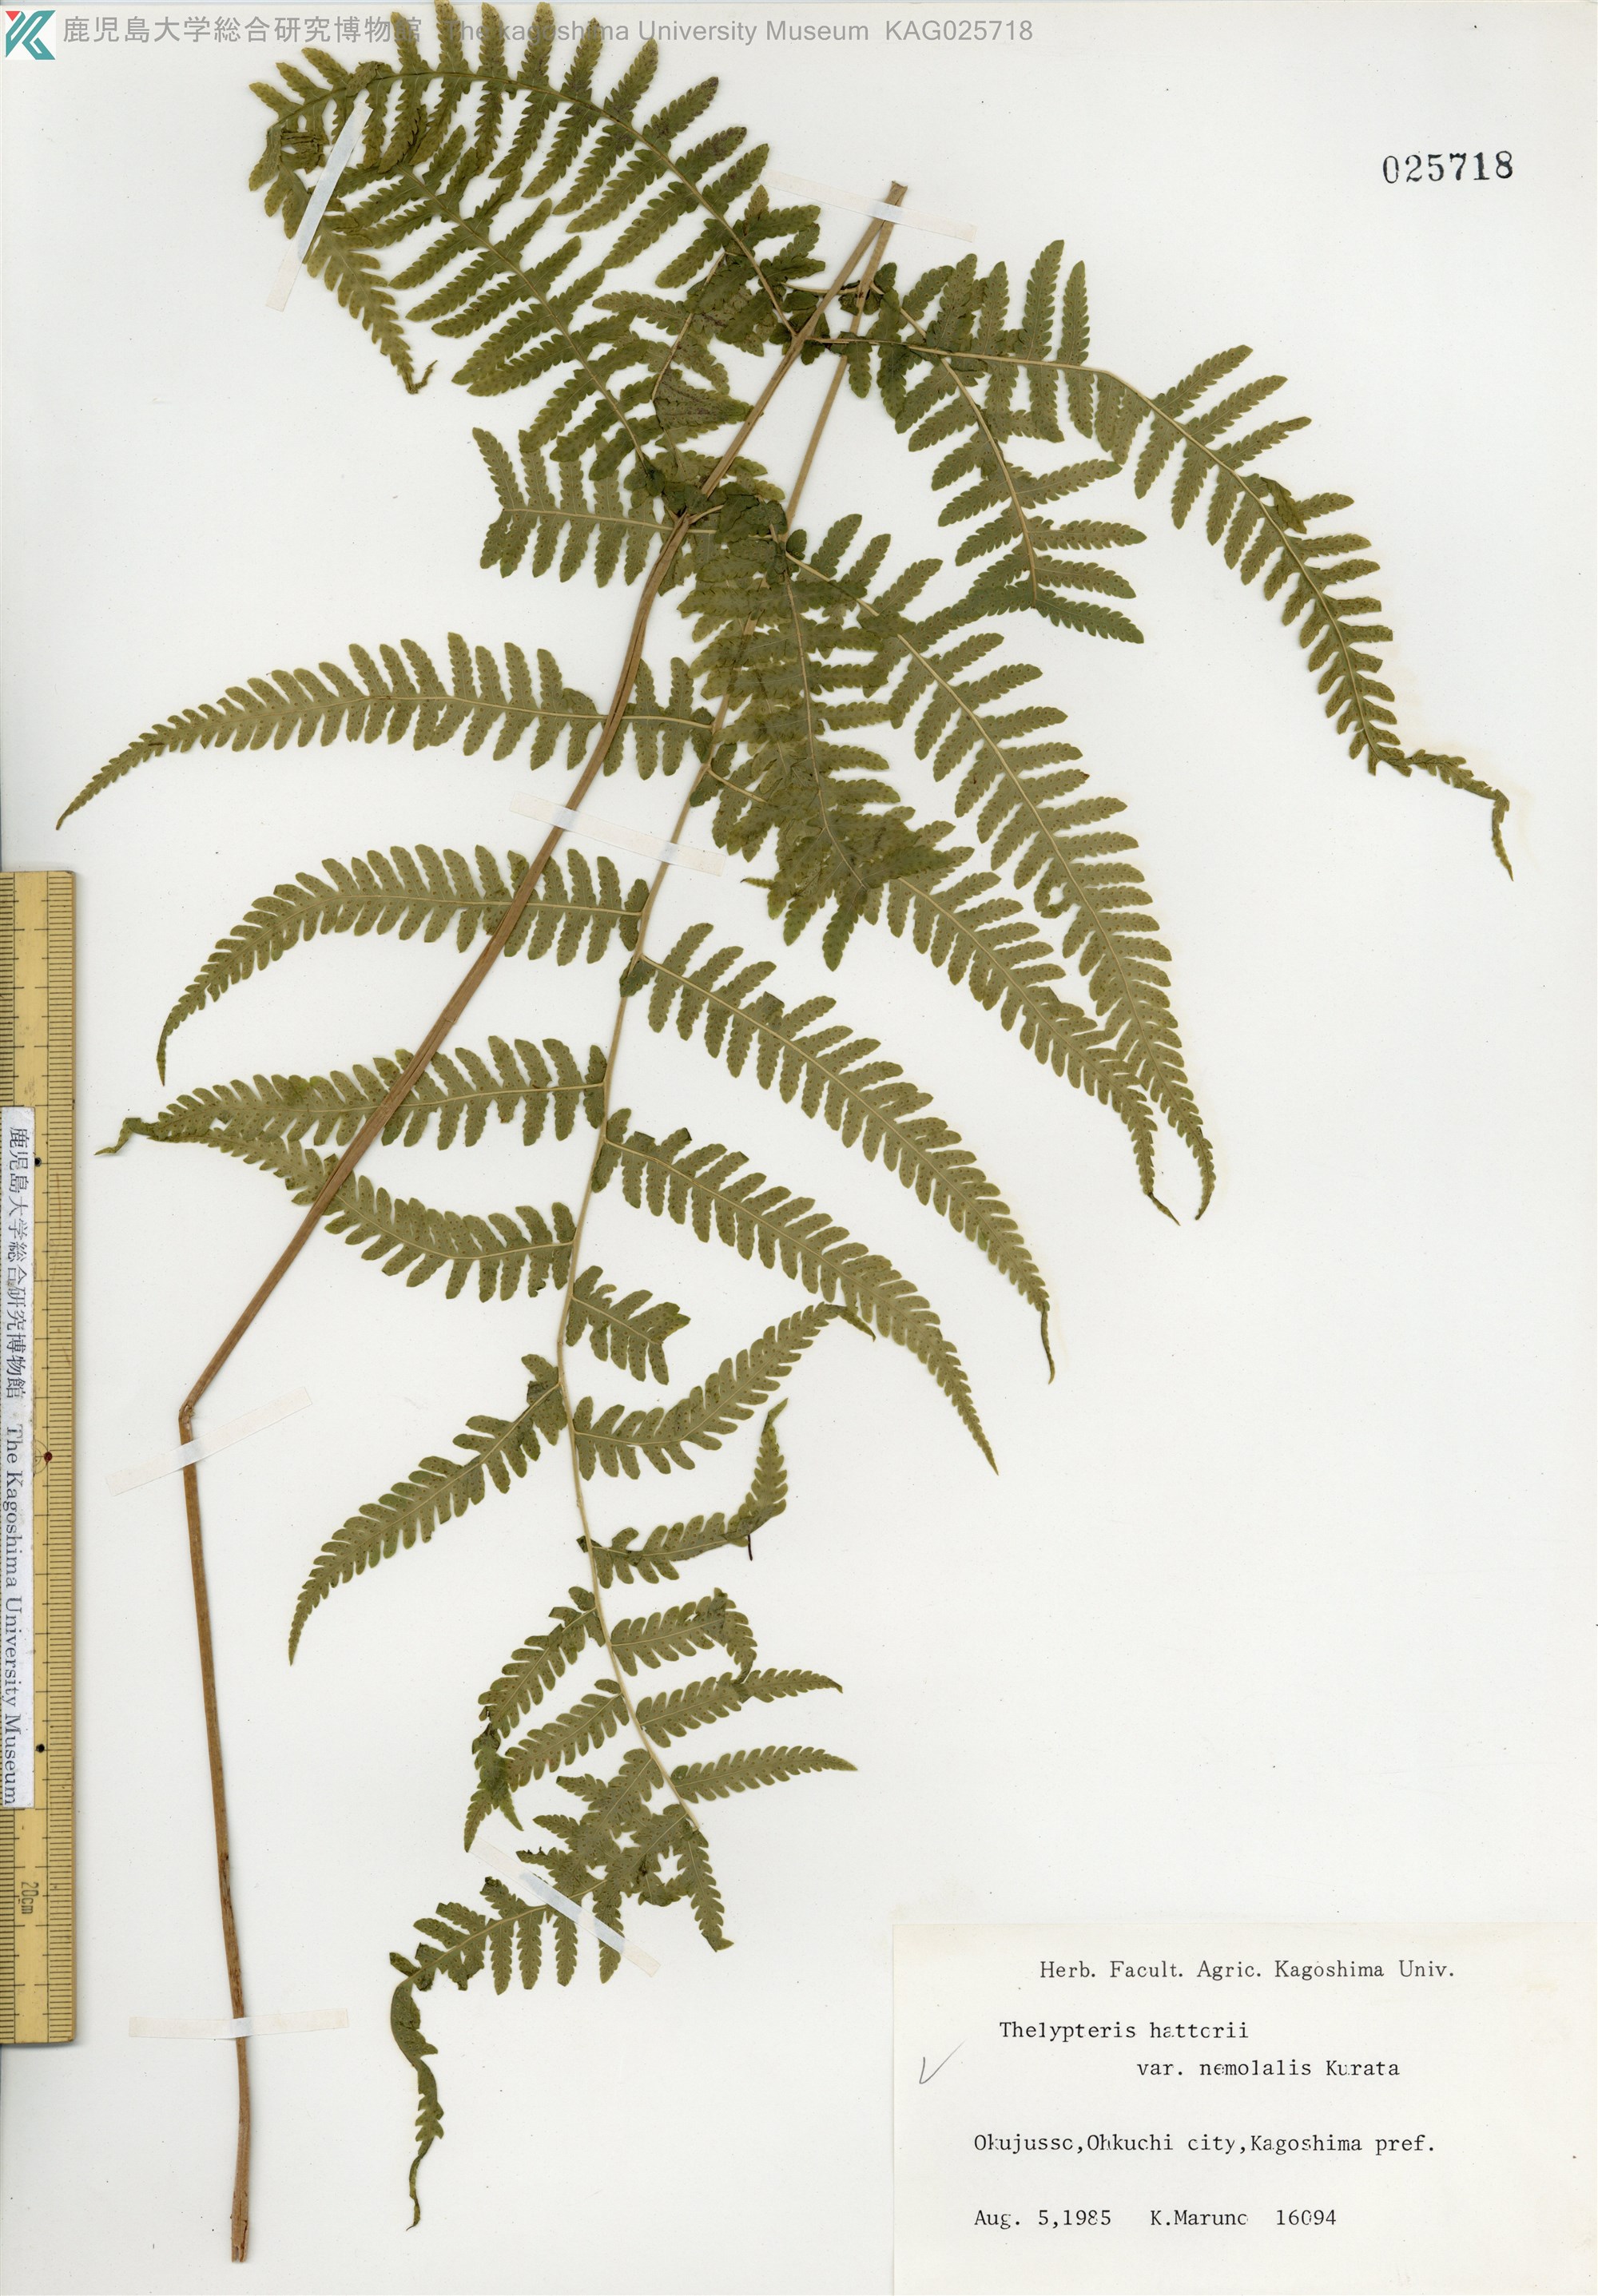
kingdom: Plantae
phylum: Tracheophyta
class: Polypodiopsida
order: Polypodiales
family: Thelypteridaceae
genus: Metathelypteris
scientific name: Metathelypteris hattori
